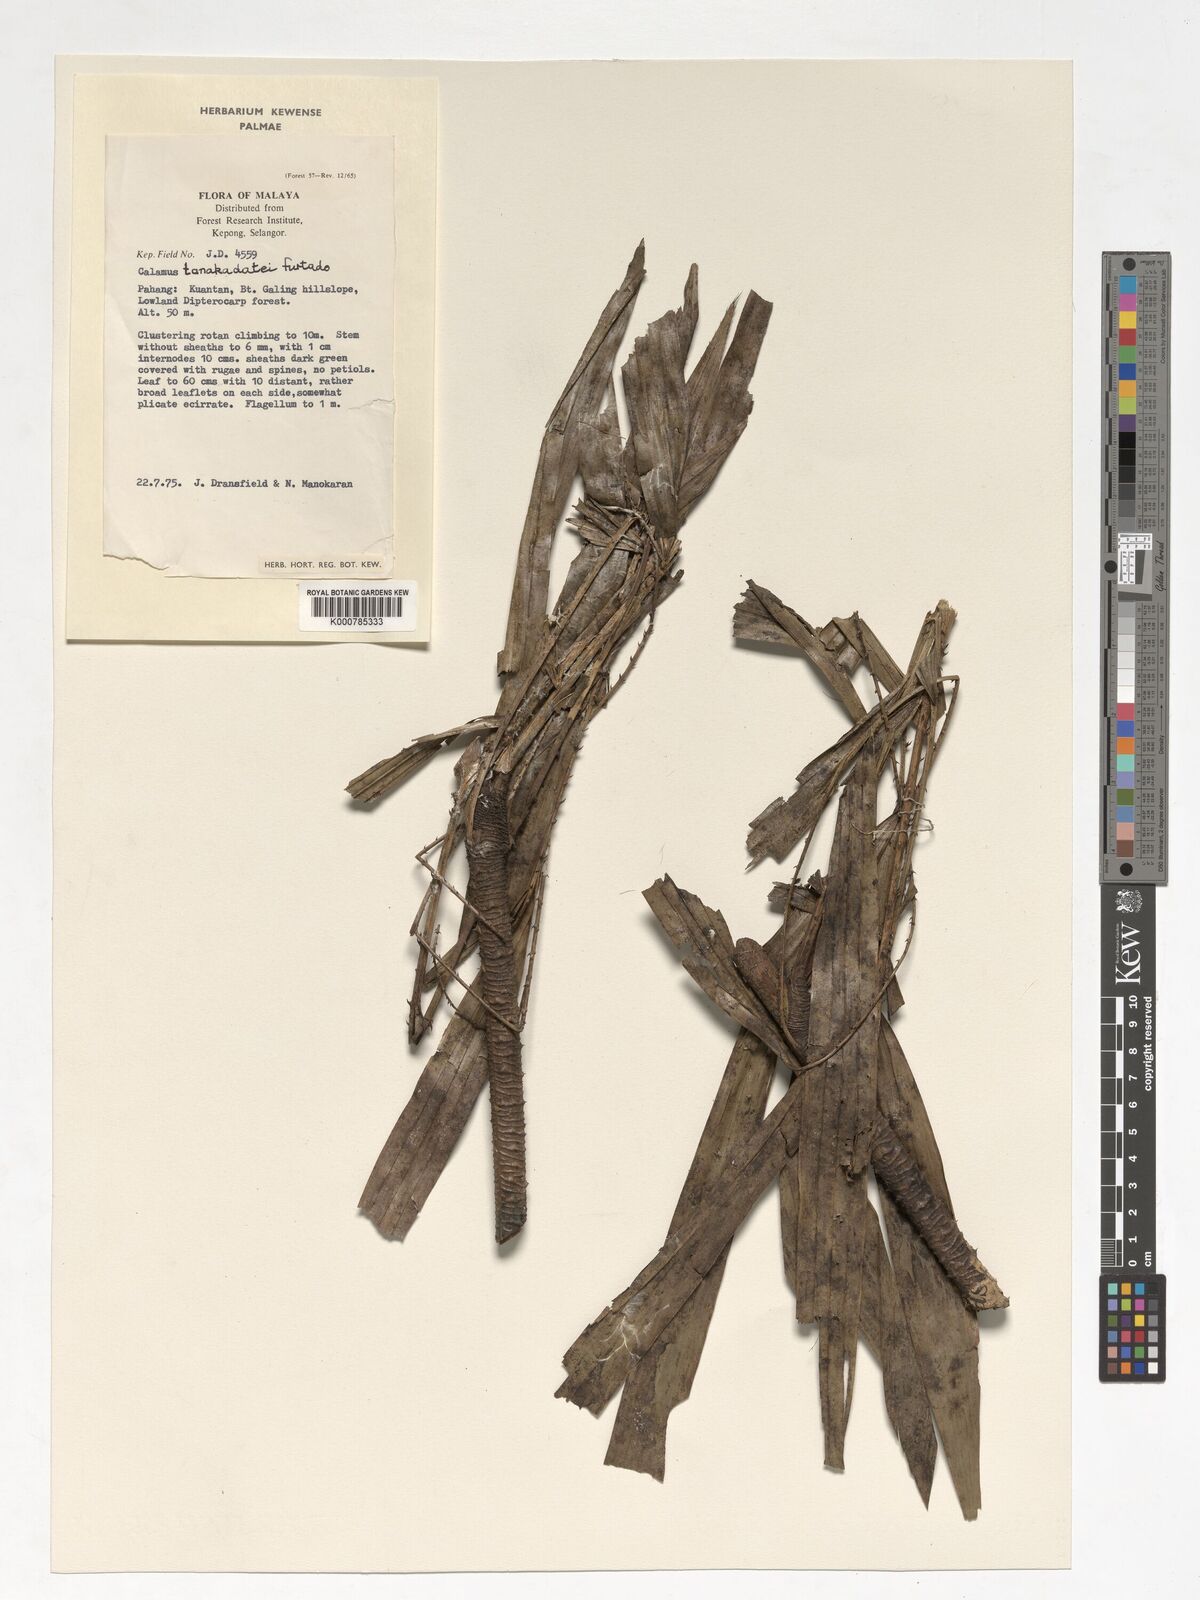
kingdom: Plantae
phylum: Tracheophyta
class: Liliopsida
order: Arecales
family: Arecaceae
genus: Calamus
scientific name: Calamus ruvidus
